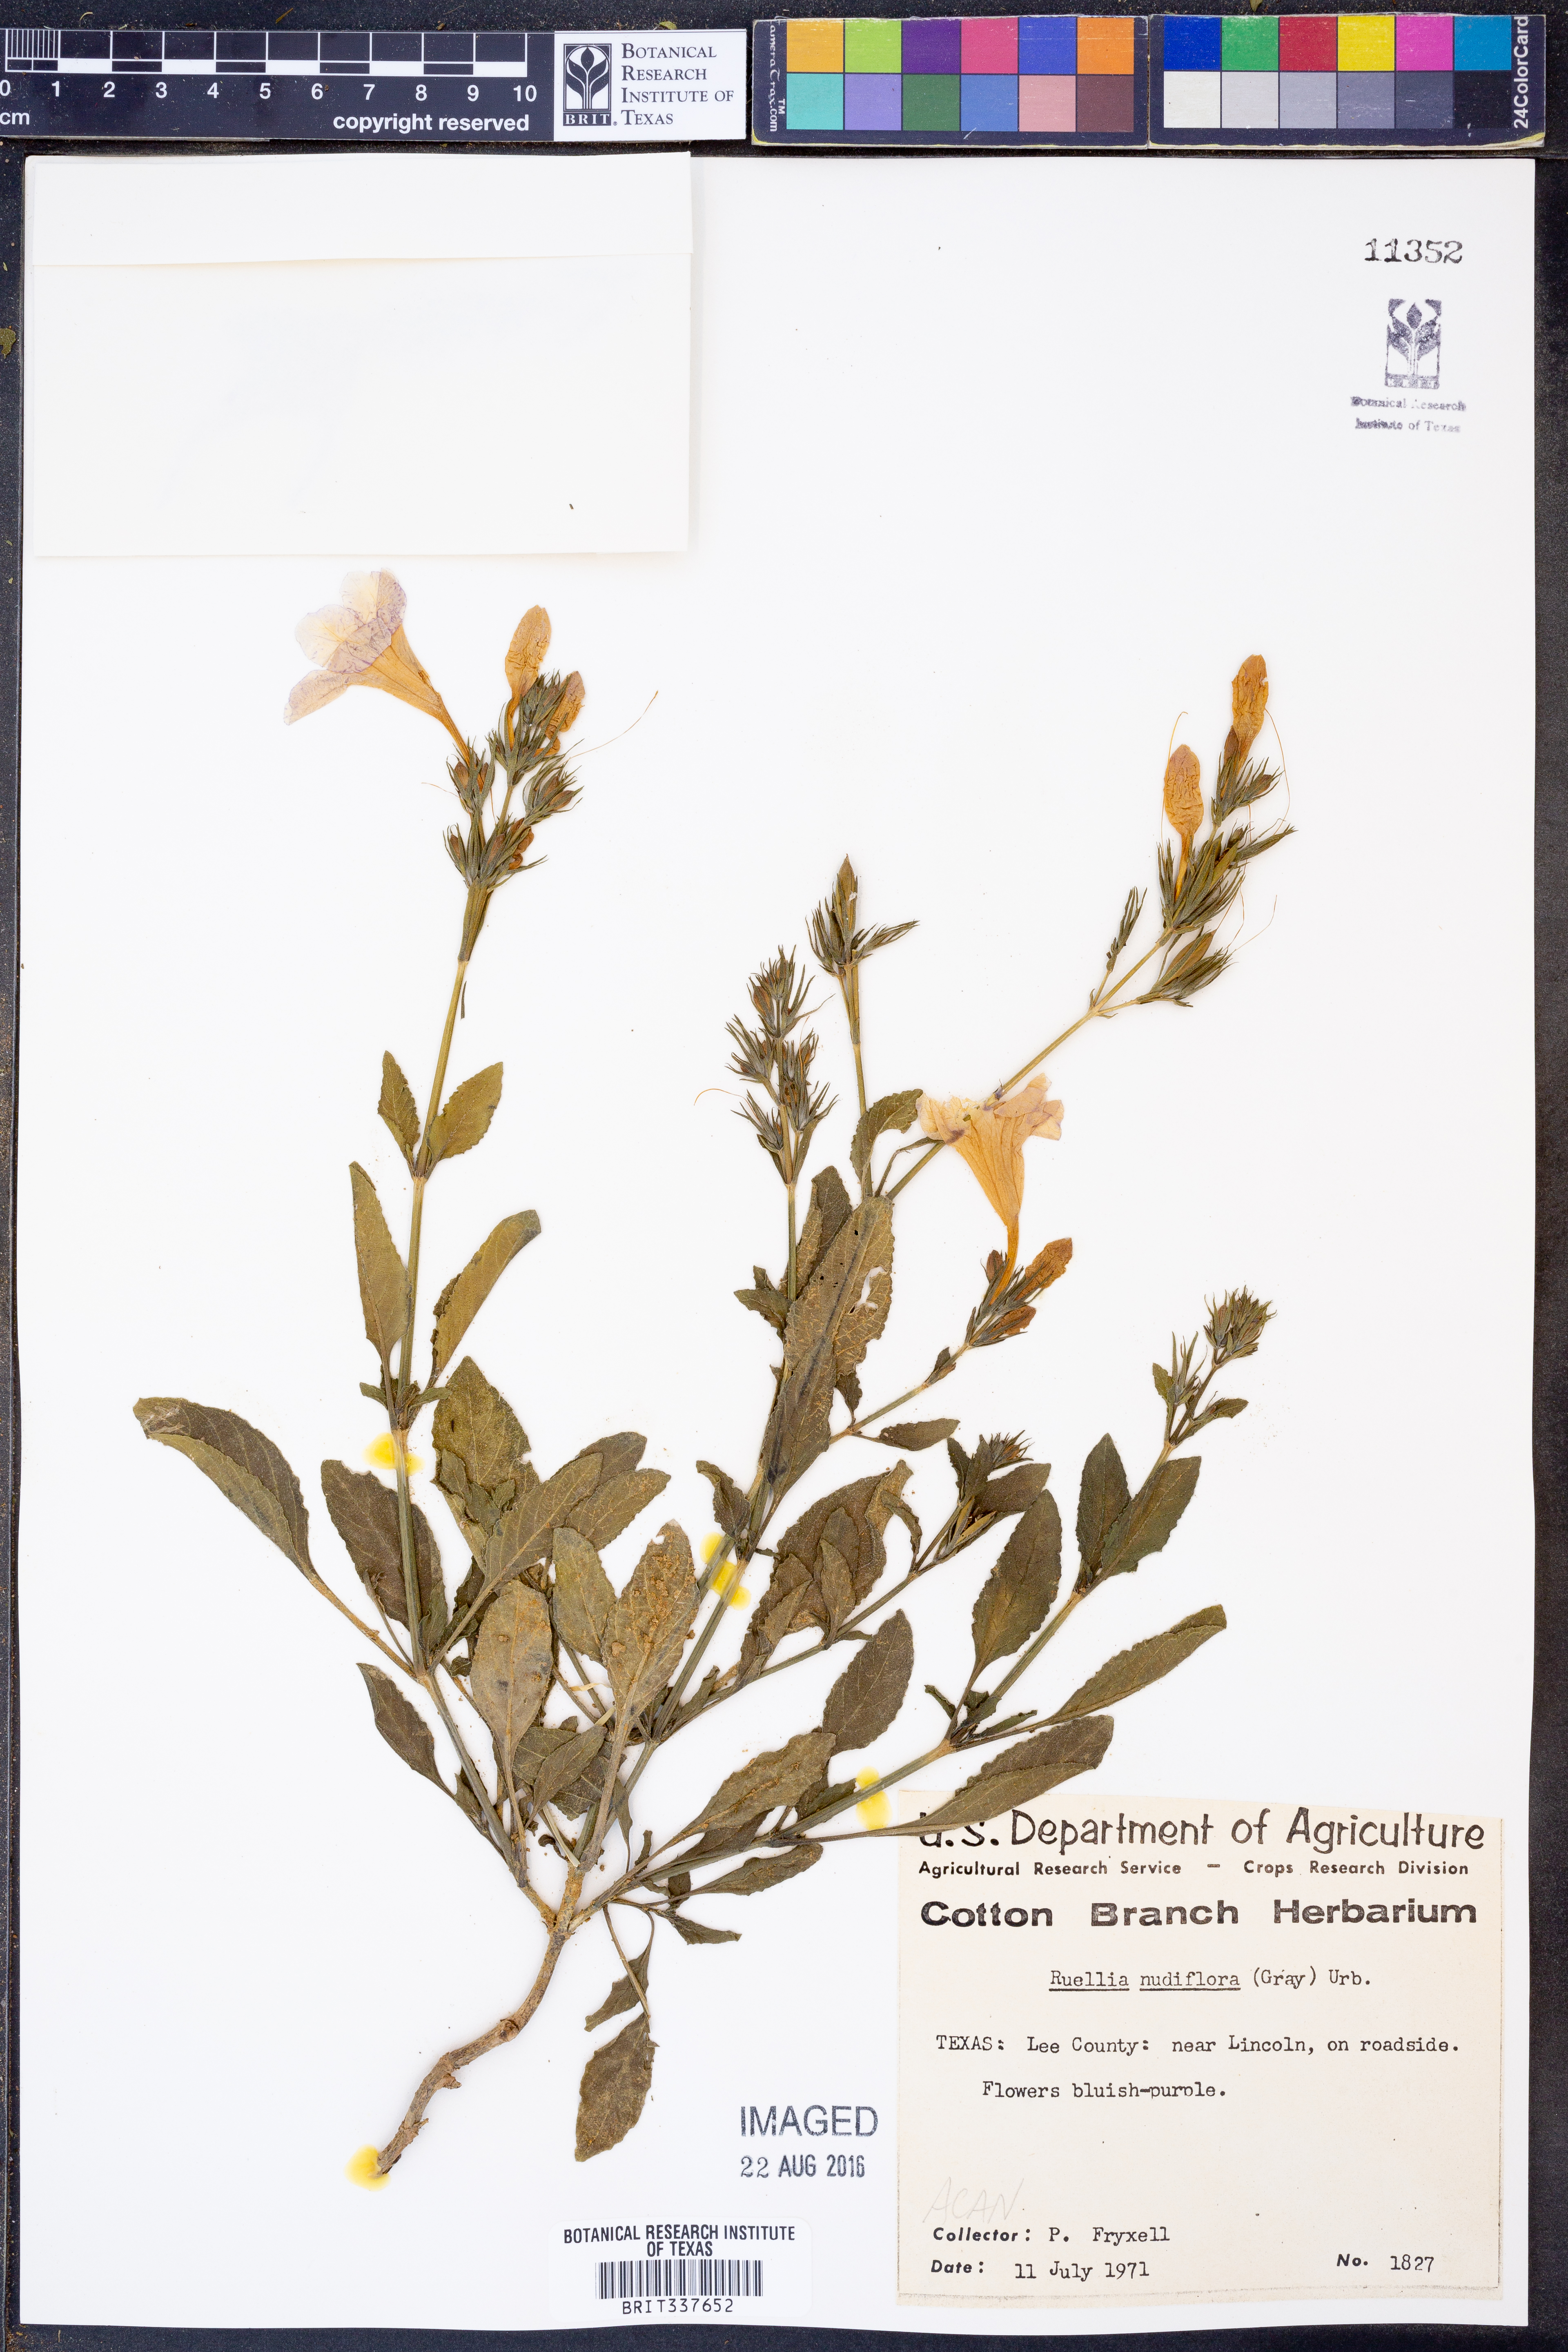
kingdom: Plantae
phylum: Tracheophyta
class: Magnoliopsida
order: Lamiales
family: Acanthaceae
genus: Ruellia
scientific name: Ruellia ciliatiflora
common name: Hairyflower wild petunia
